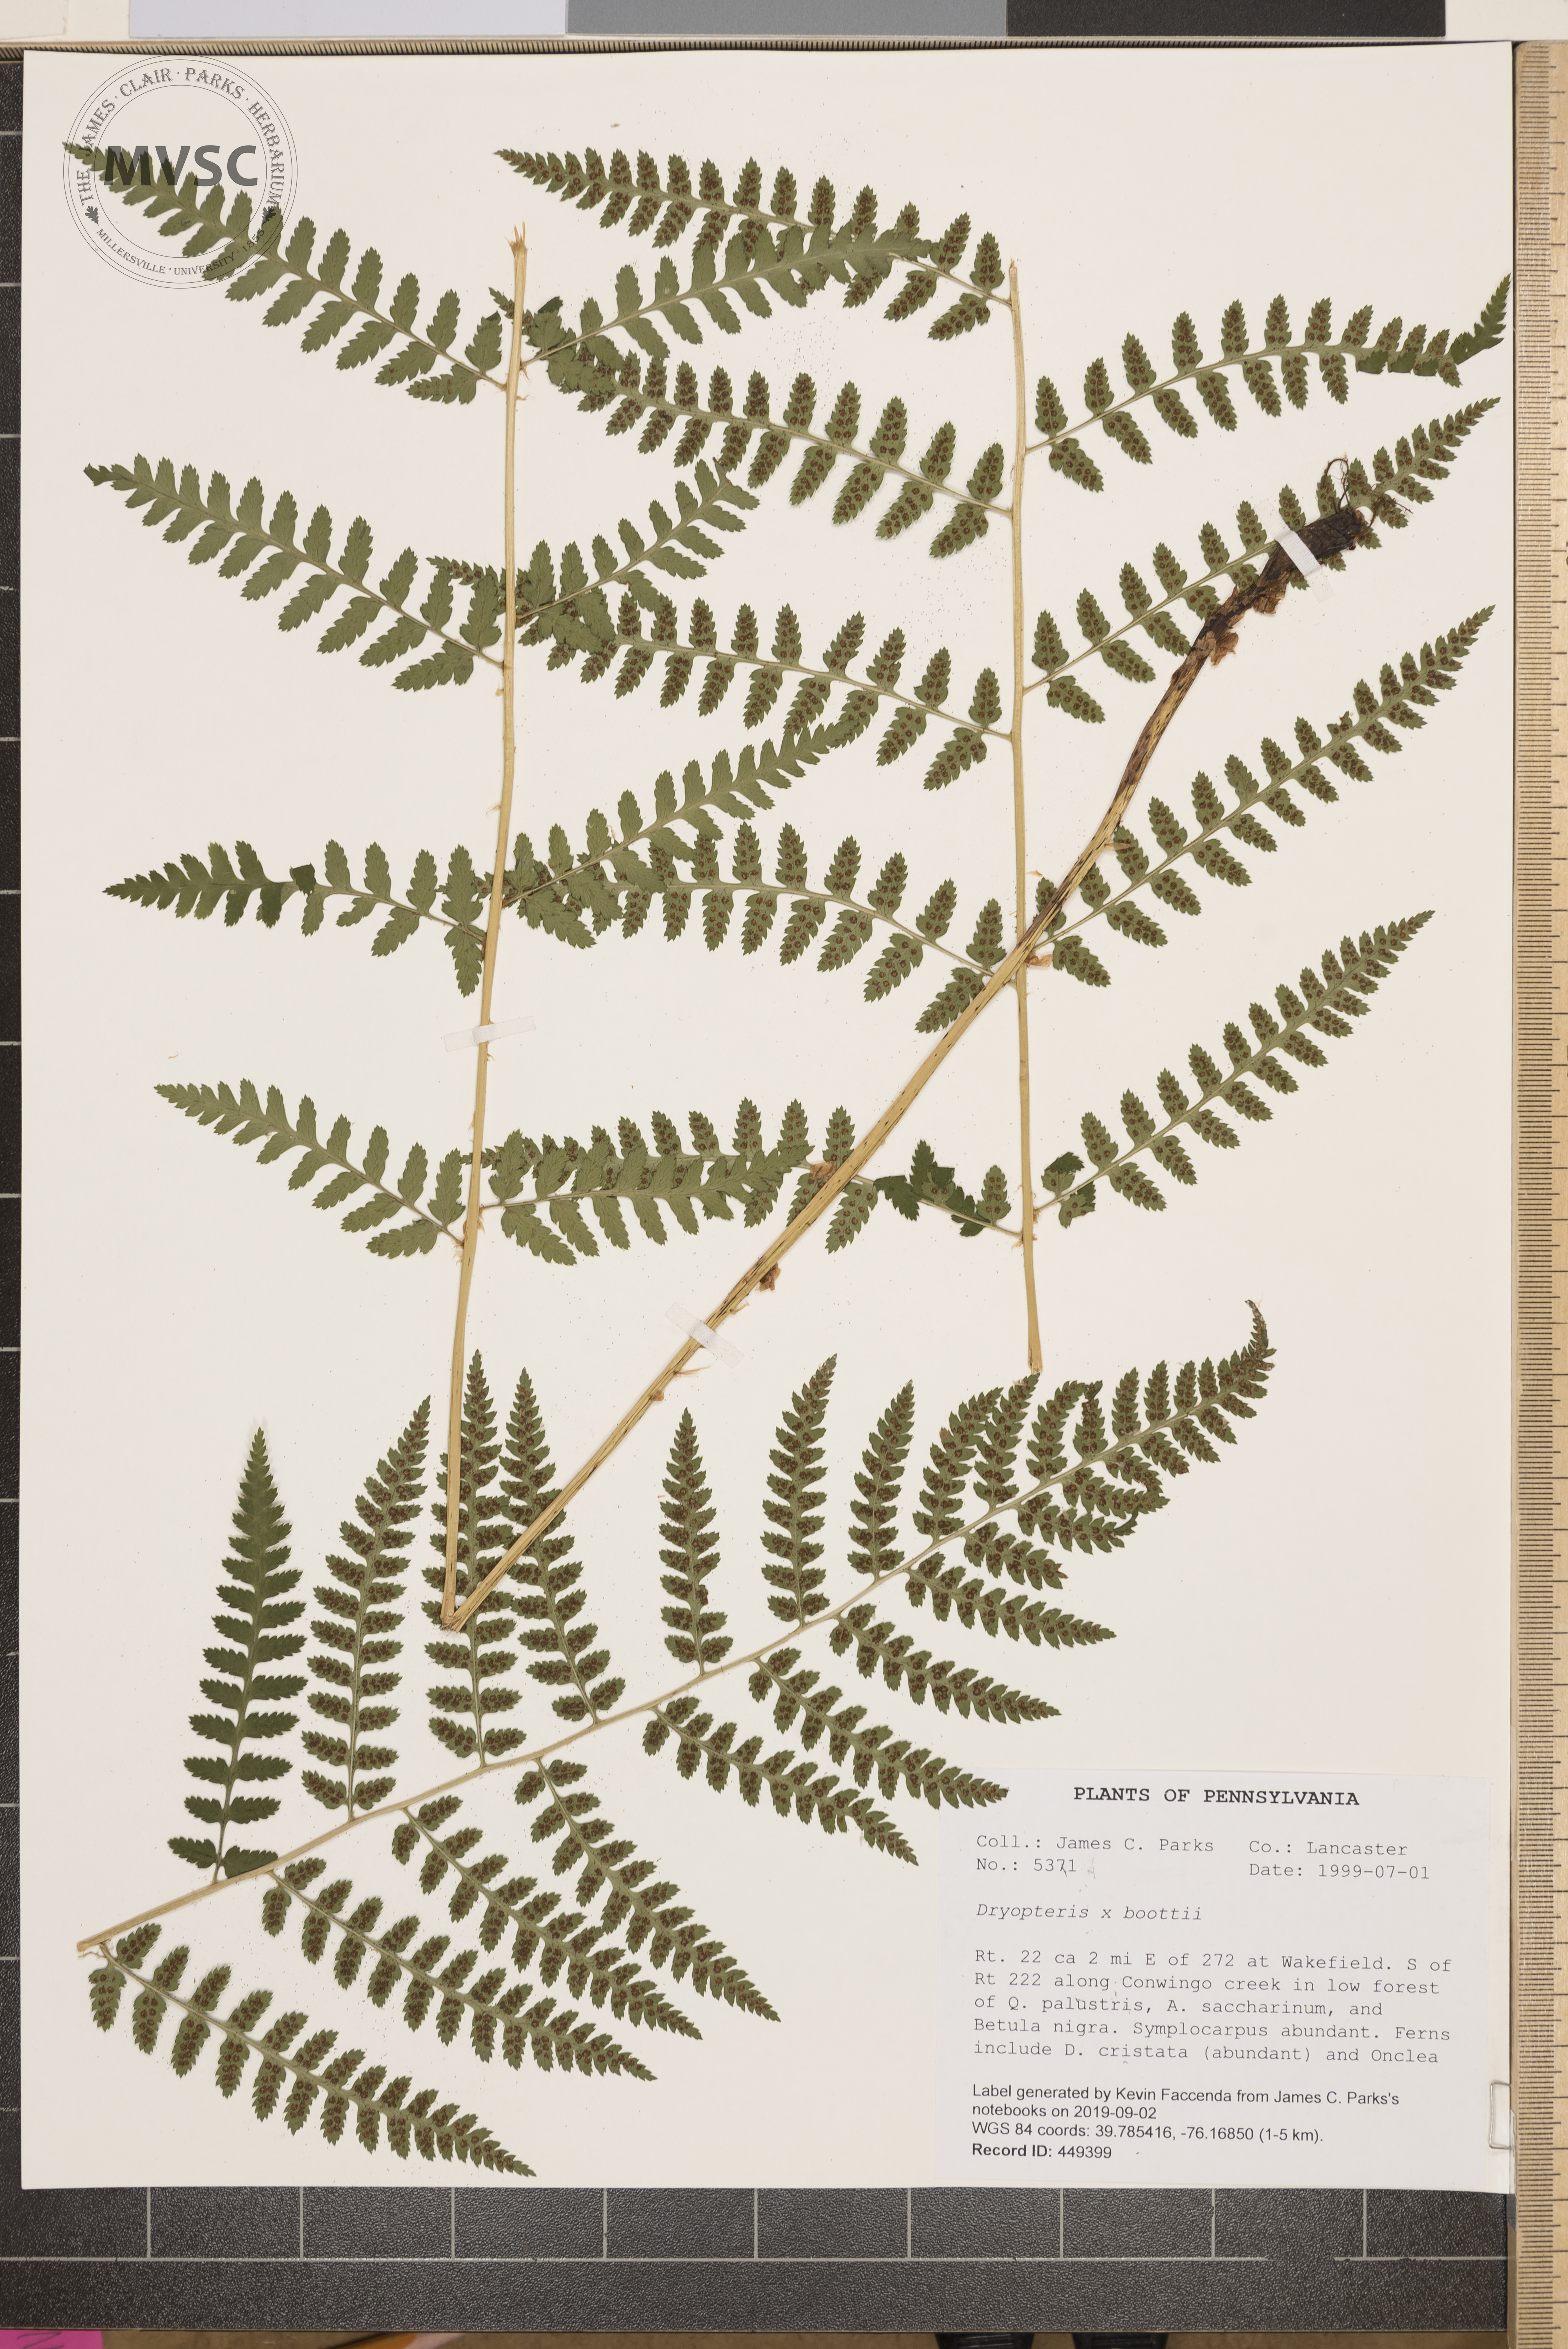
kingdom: Plantae
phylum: Tracheophyta
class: Polypodiopsida
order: Polypodiales
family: Dryopteridaceae
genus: Dryopteris
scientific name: Dryopteris boottii
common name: Boott's fern
